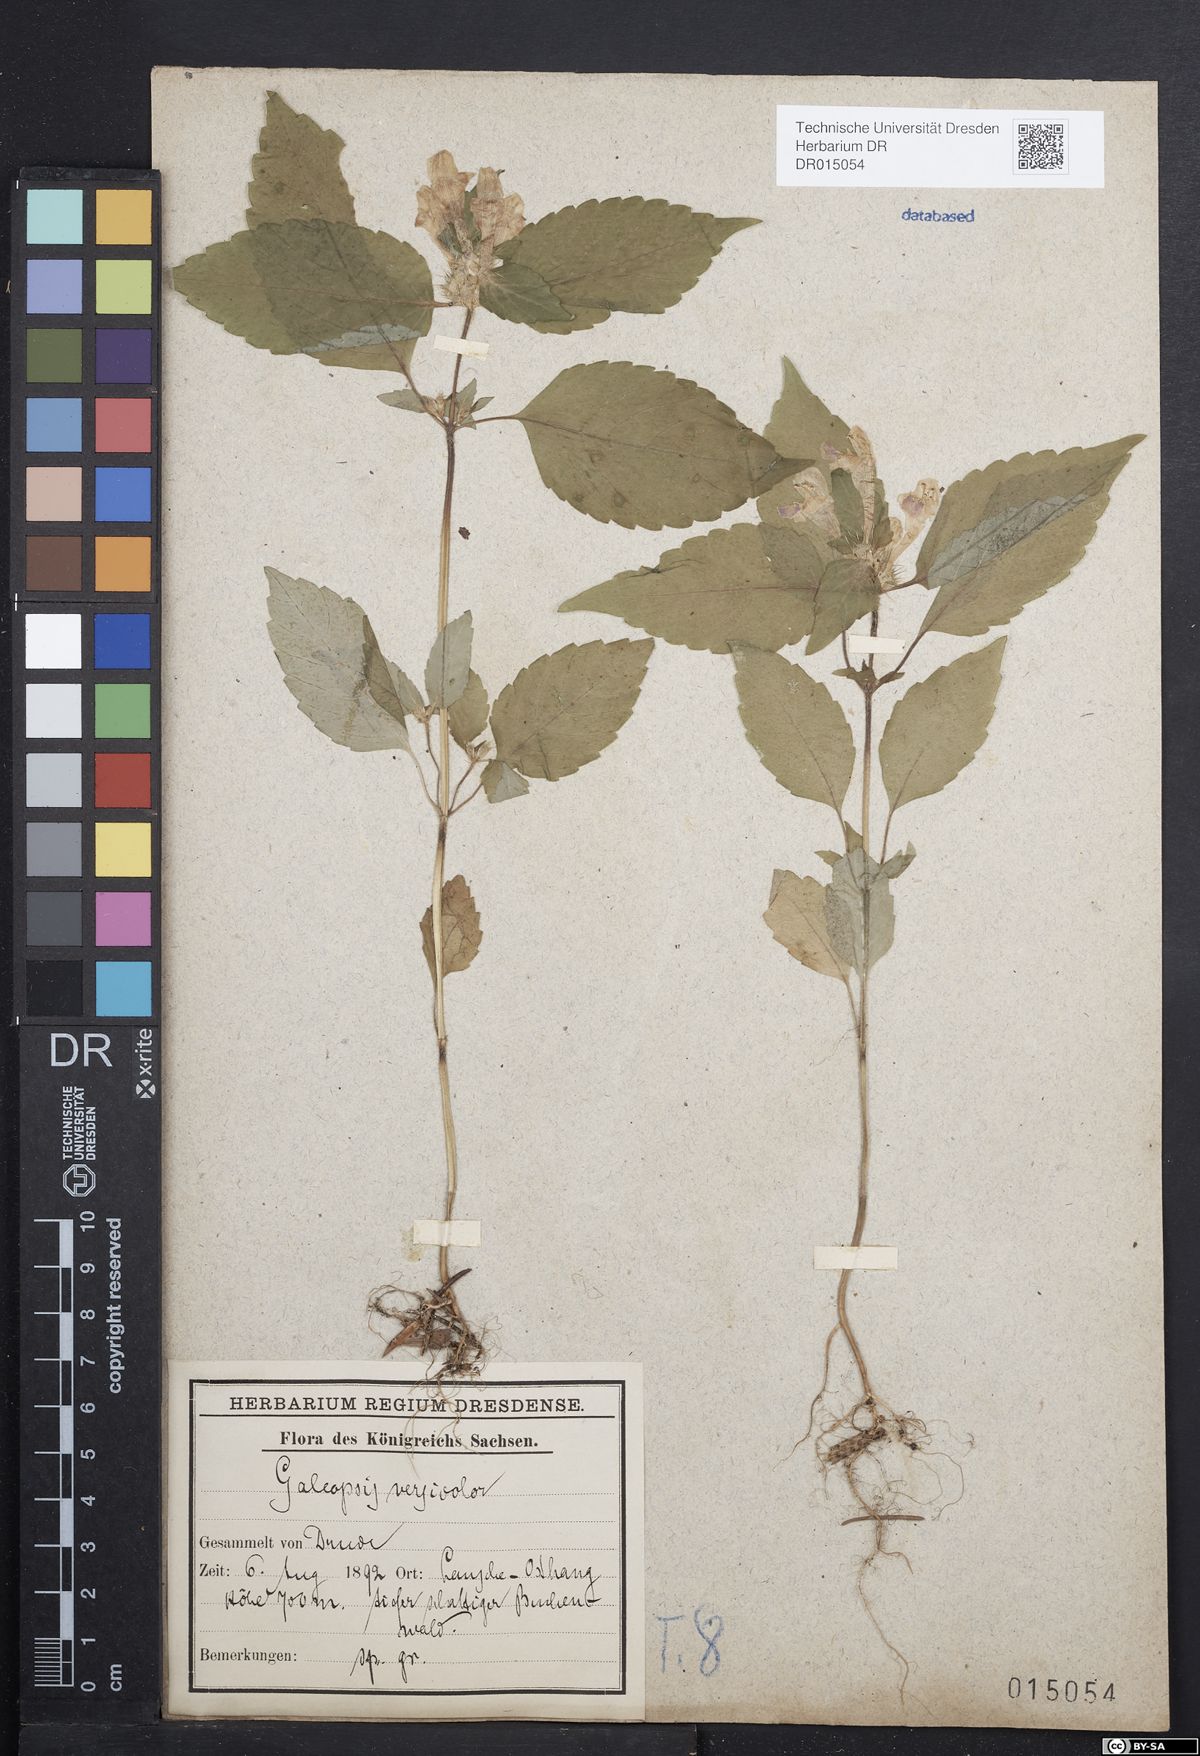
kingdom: Plantae
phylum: Tracheophyta
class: Magnoliopsida
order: Lamiales
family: Lamiaceae
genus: Galeopsis
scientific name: Galeopsis speciosa
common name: Large-flowered hemp-nettle
